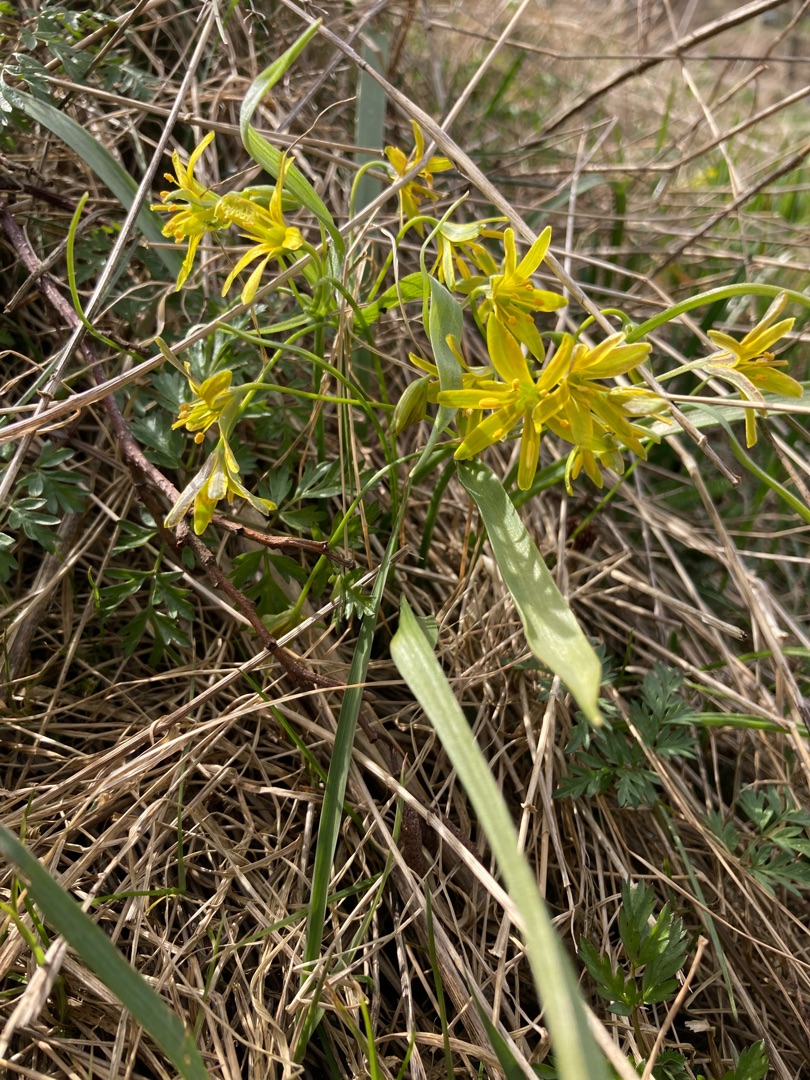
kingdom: Plantae
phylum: Tracheophyta
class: Liliopsida
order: Liliales
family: Liliaceae
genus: Gagea
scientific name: Gagea lutea
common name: Almindelig guldstjerne
